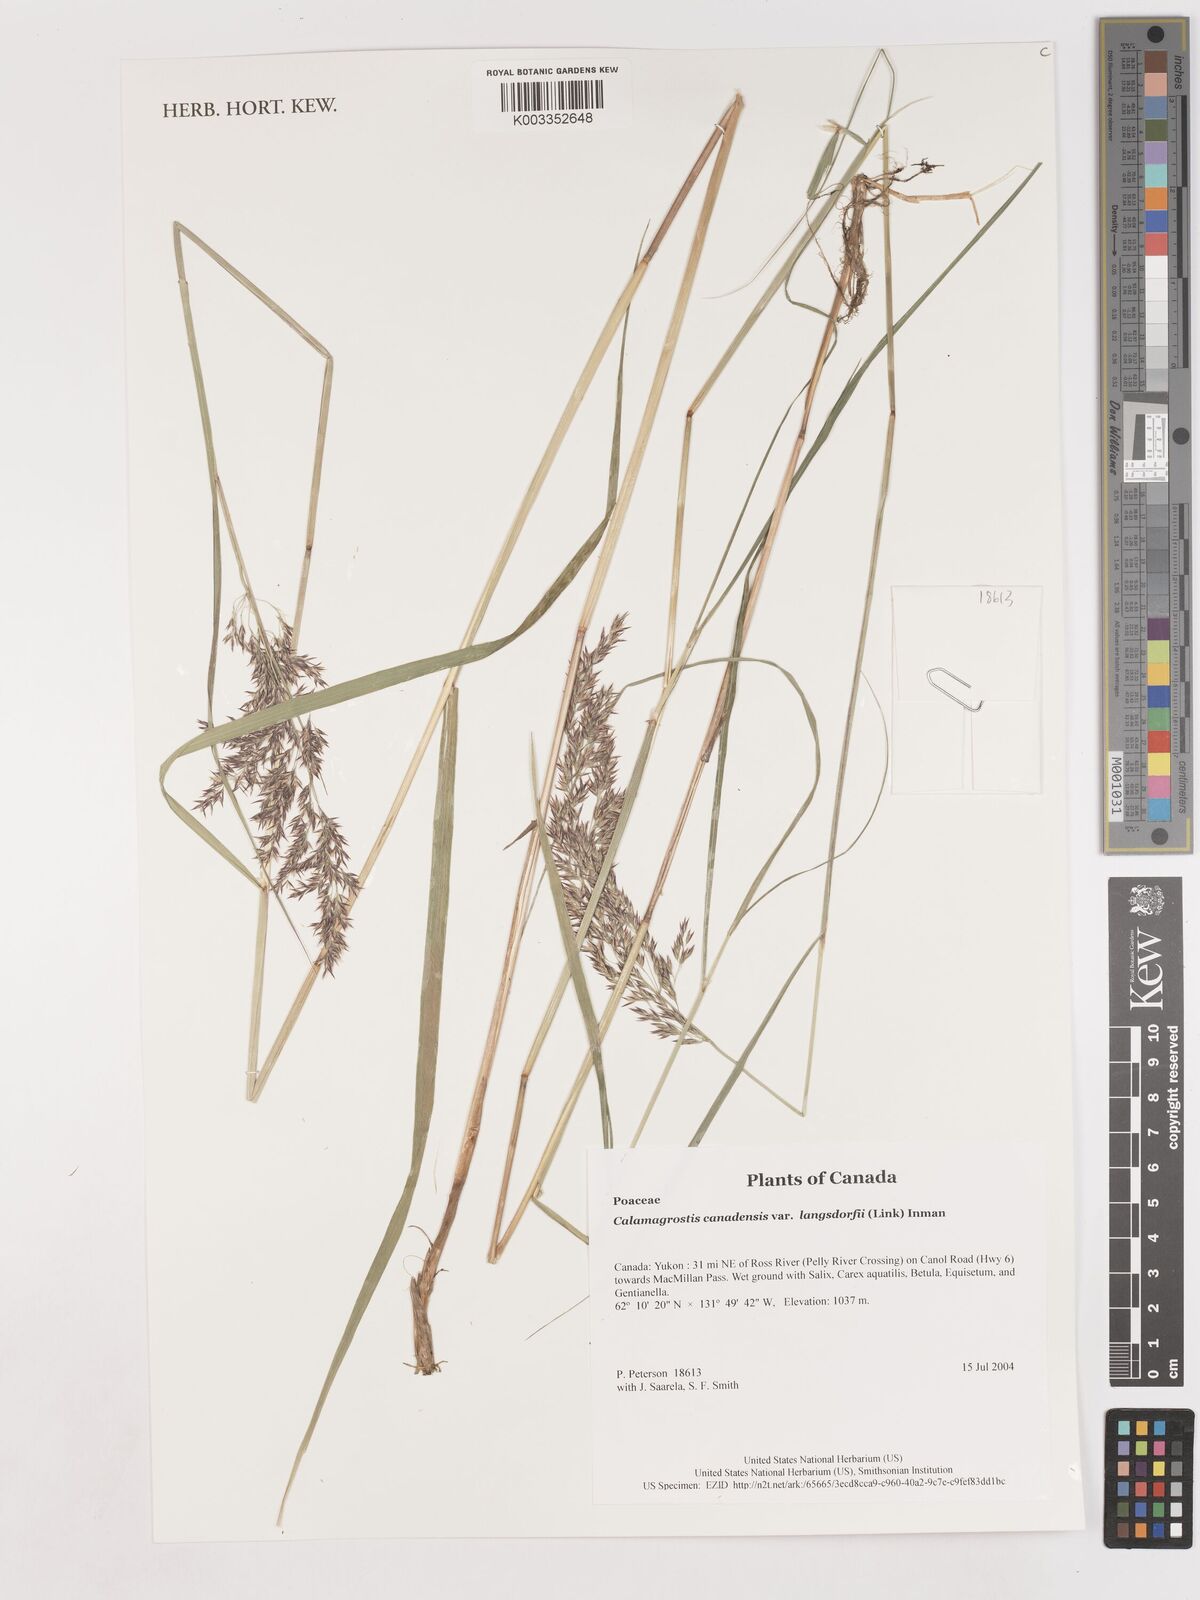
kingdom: Plantae
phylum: Tracheophyta
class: Liliopsida
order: Poales
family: Poaceae
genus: Calamagrostis
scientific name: Calamagrostis canadensis
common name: Canada bluejoint
